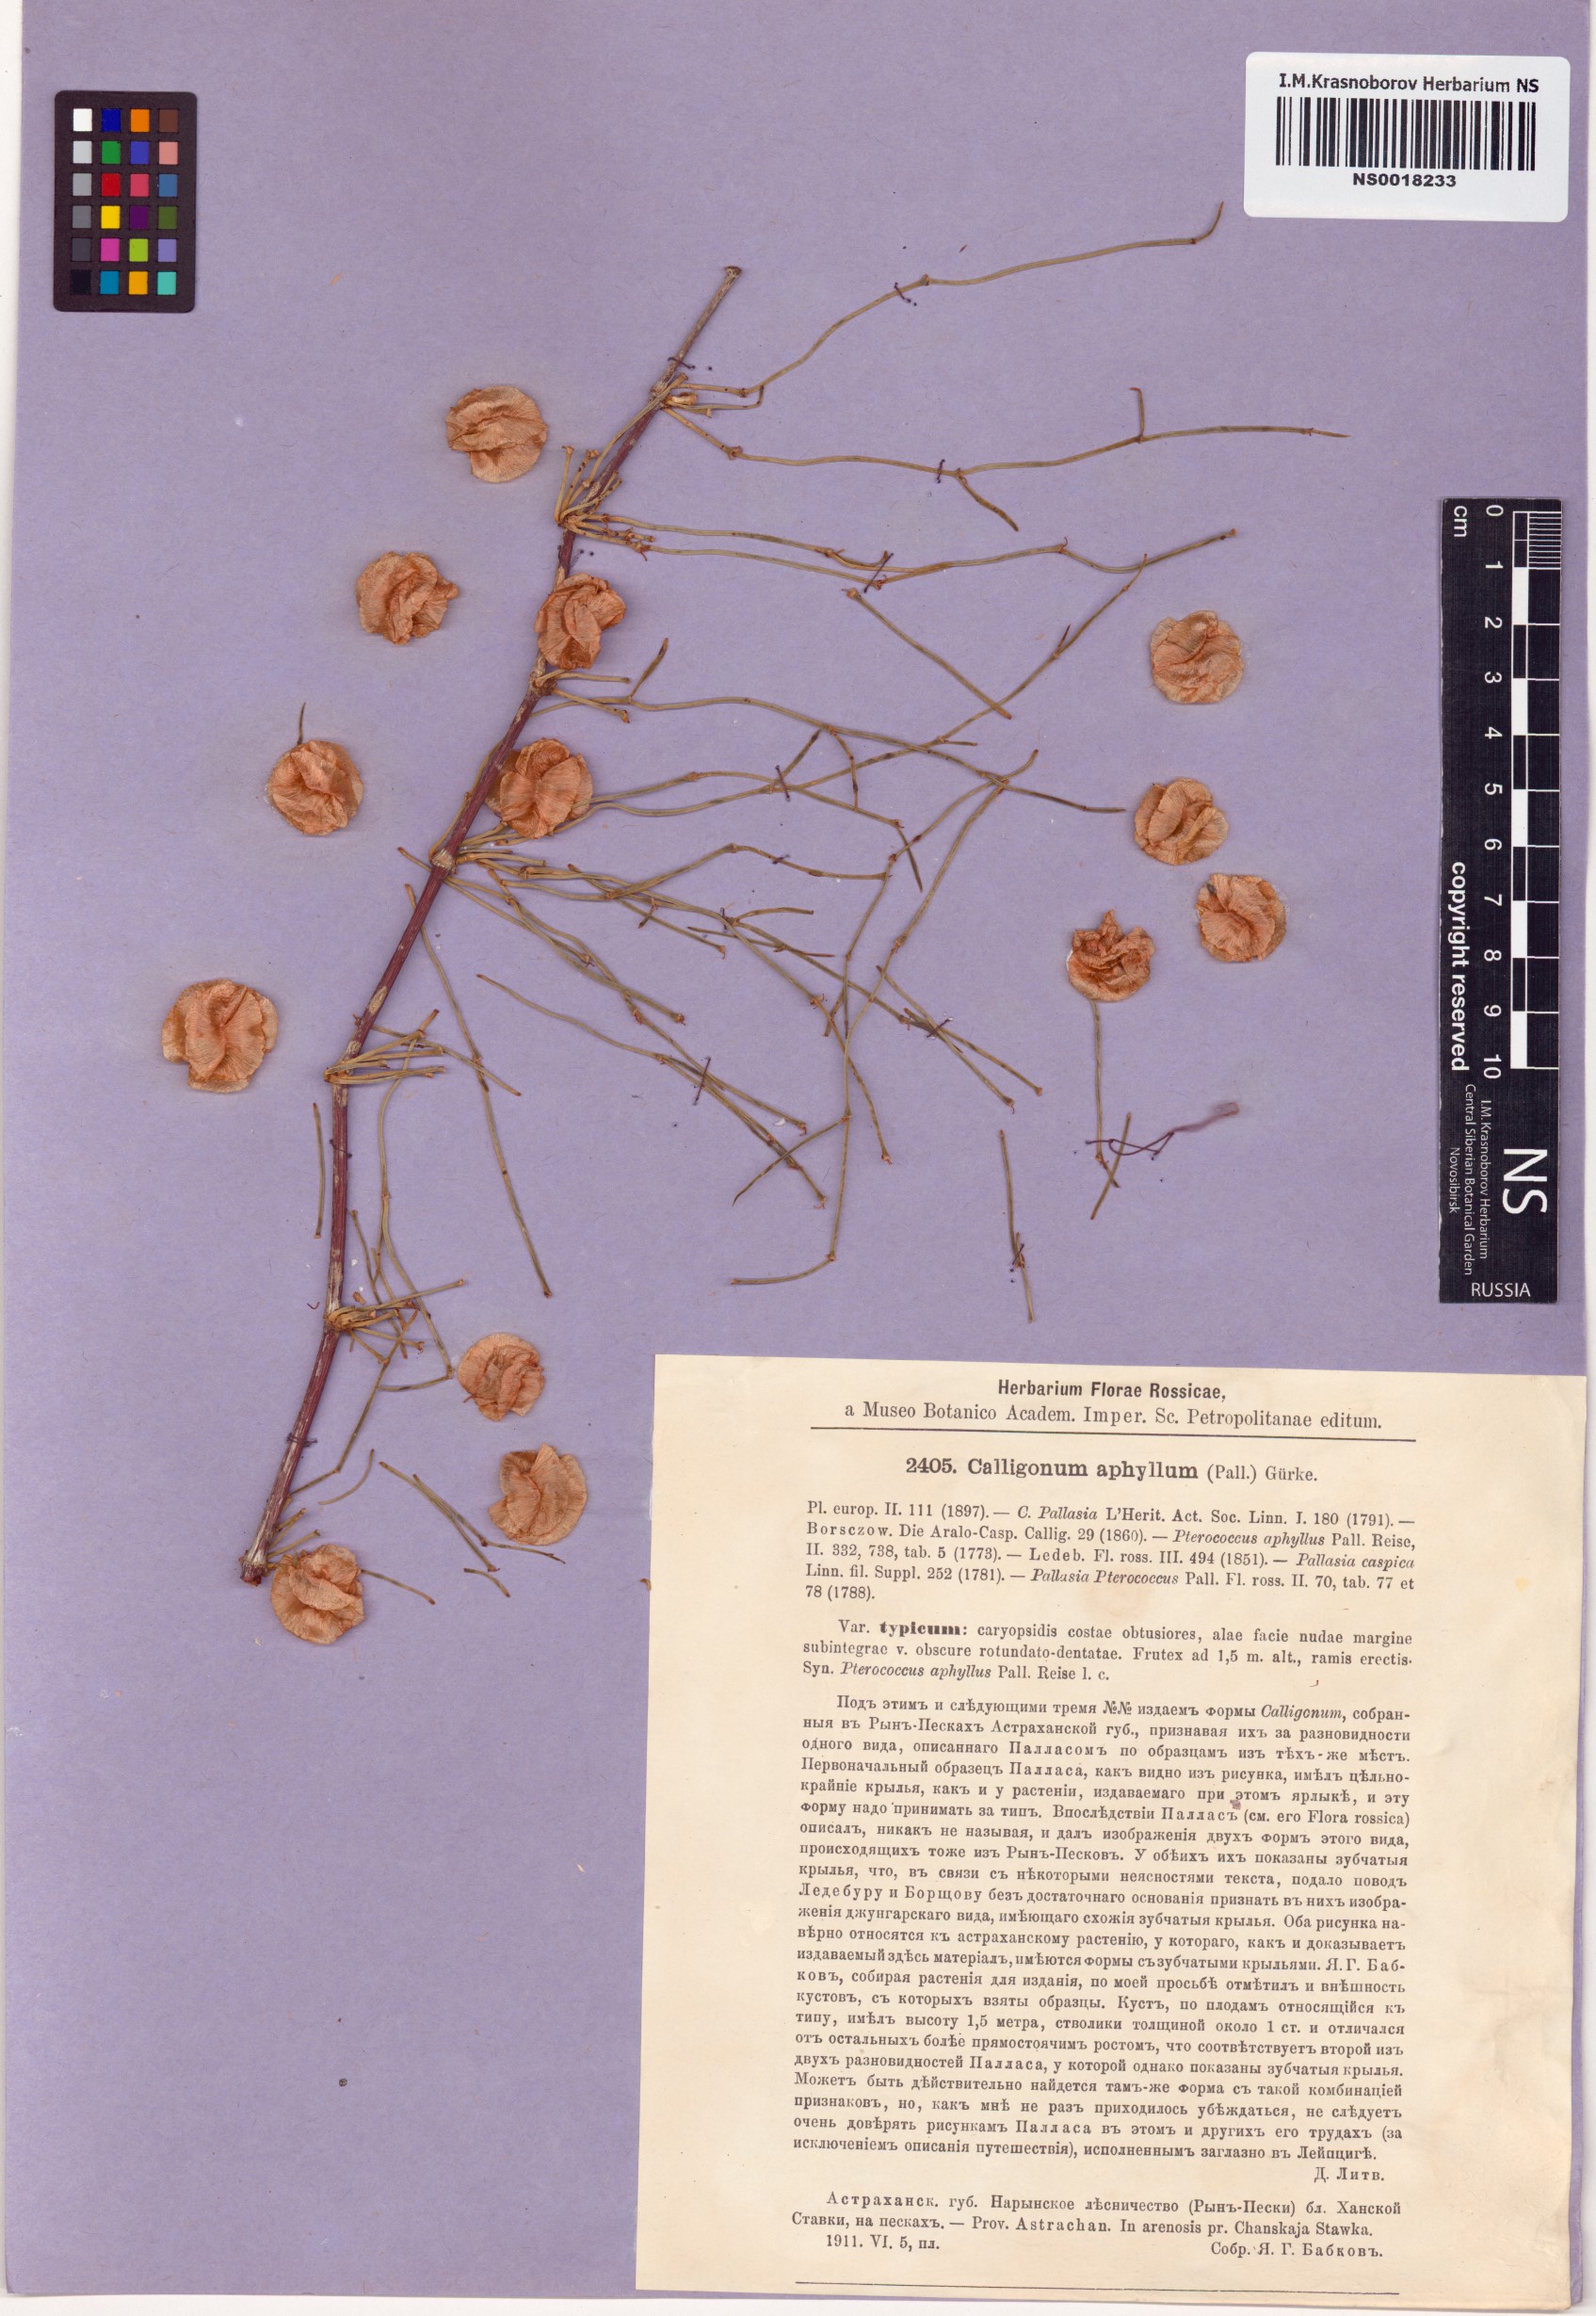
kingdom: Plantae
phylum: Tracheophyta
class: Magnoliopsida
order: Caryophyllales
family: Polygonaceae
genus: Calligonum
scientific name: Calligonum aphyllum
